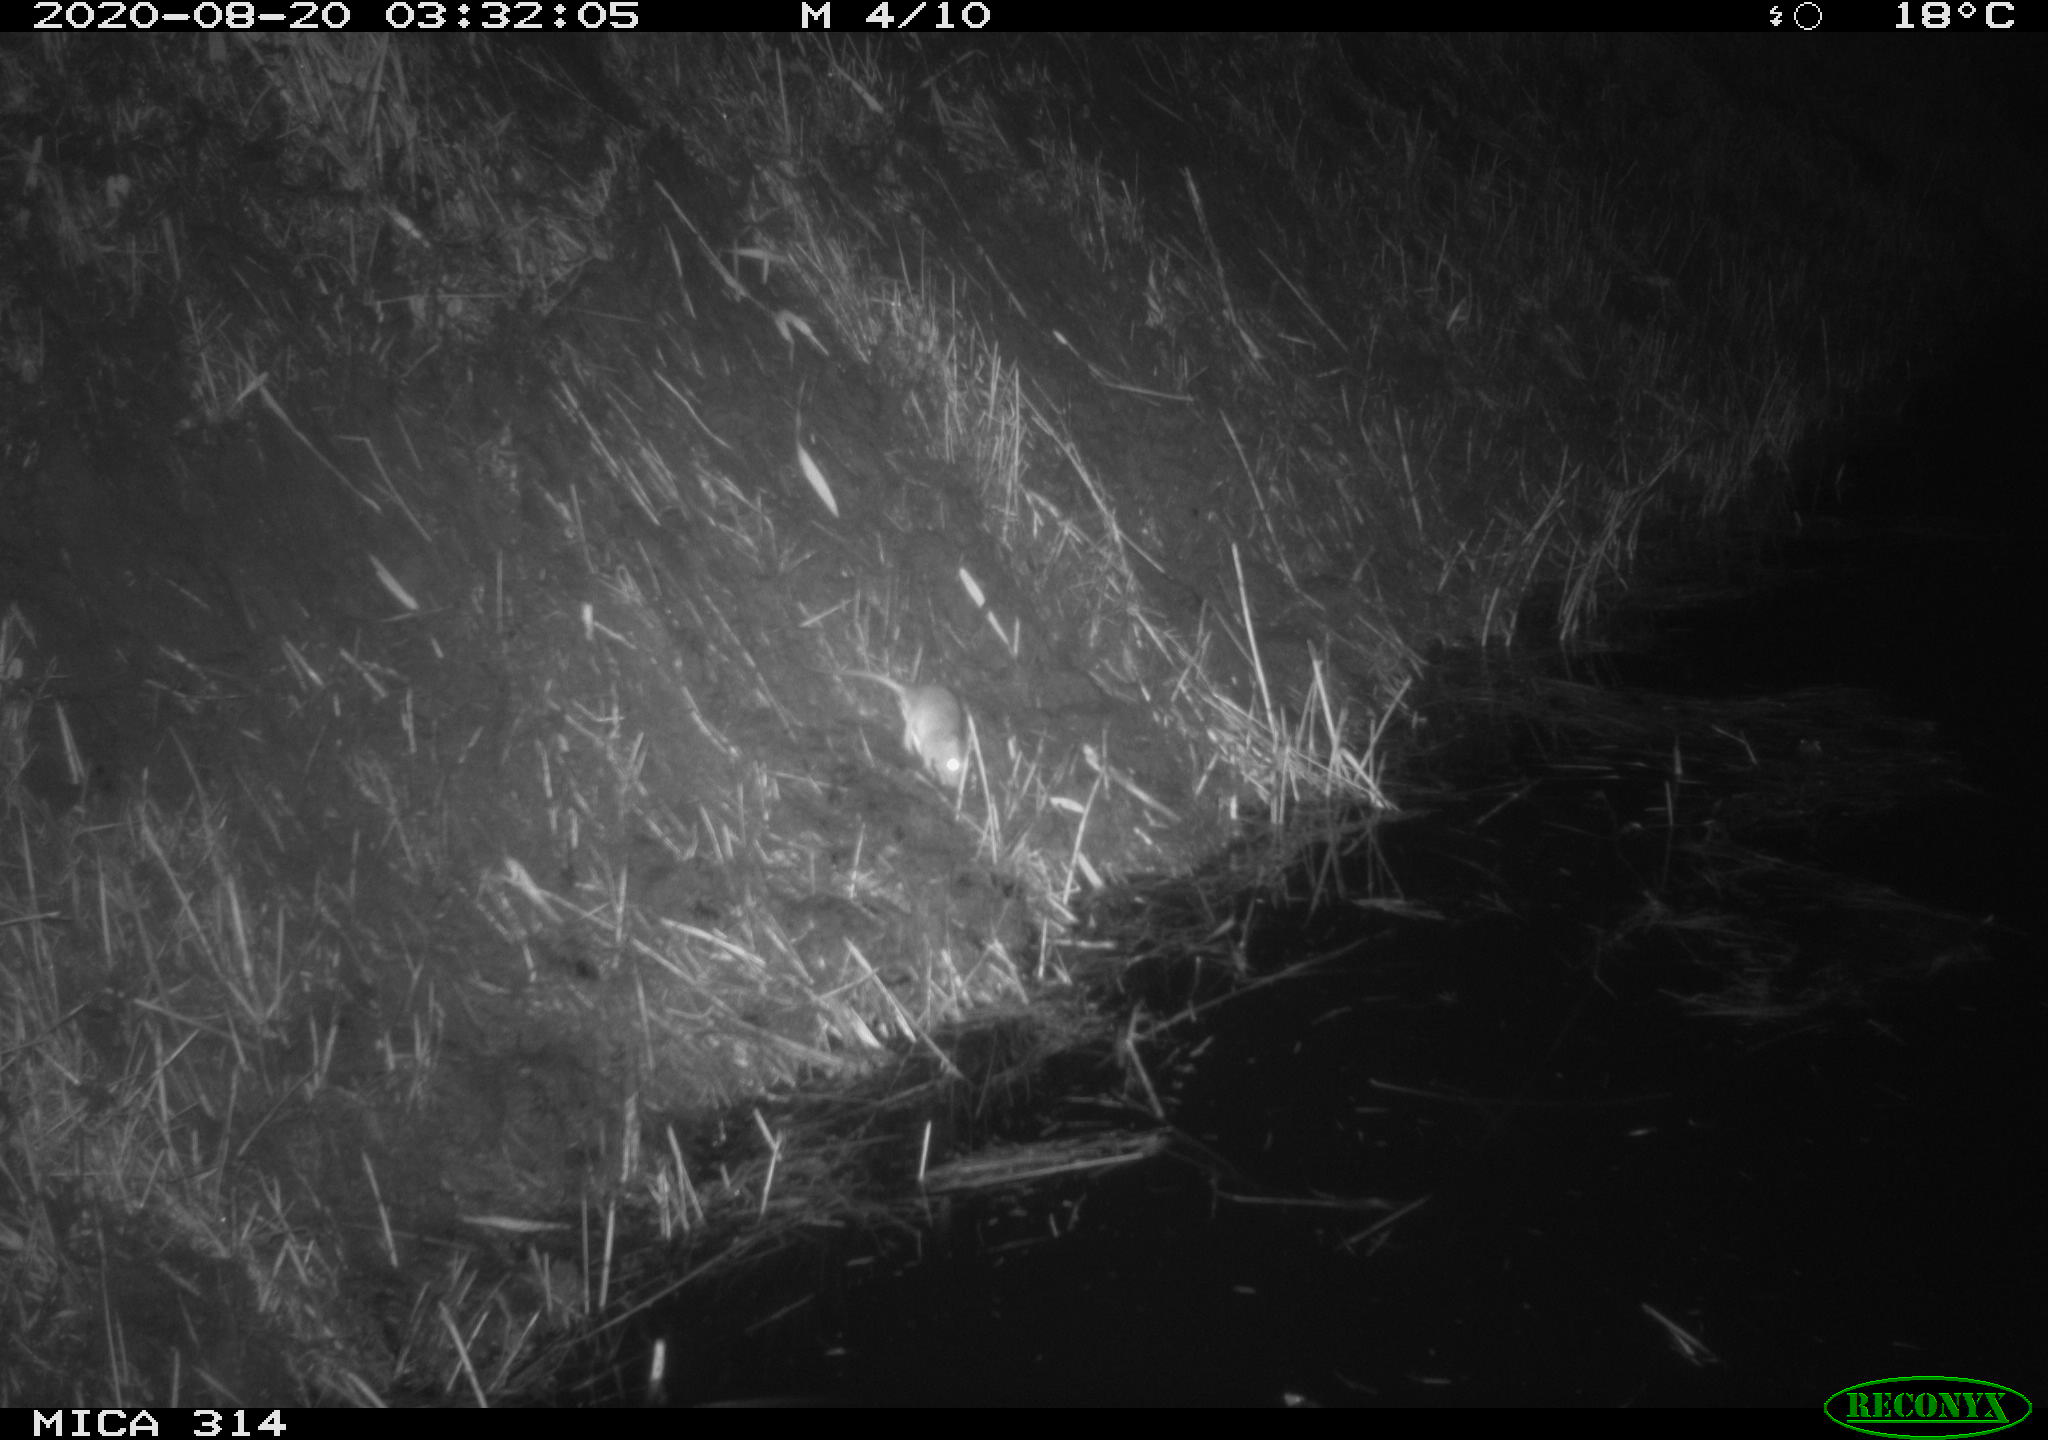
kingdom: Animalia
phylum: Chordata
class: Mammalia
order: Rodentia
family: Muridae
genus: Rattus
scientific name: Rattus norvegicus
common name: Brown rat
